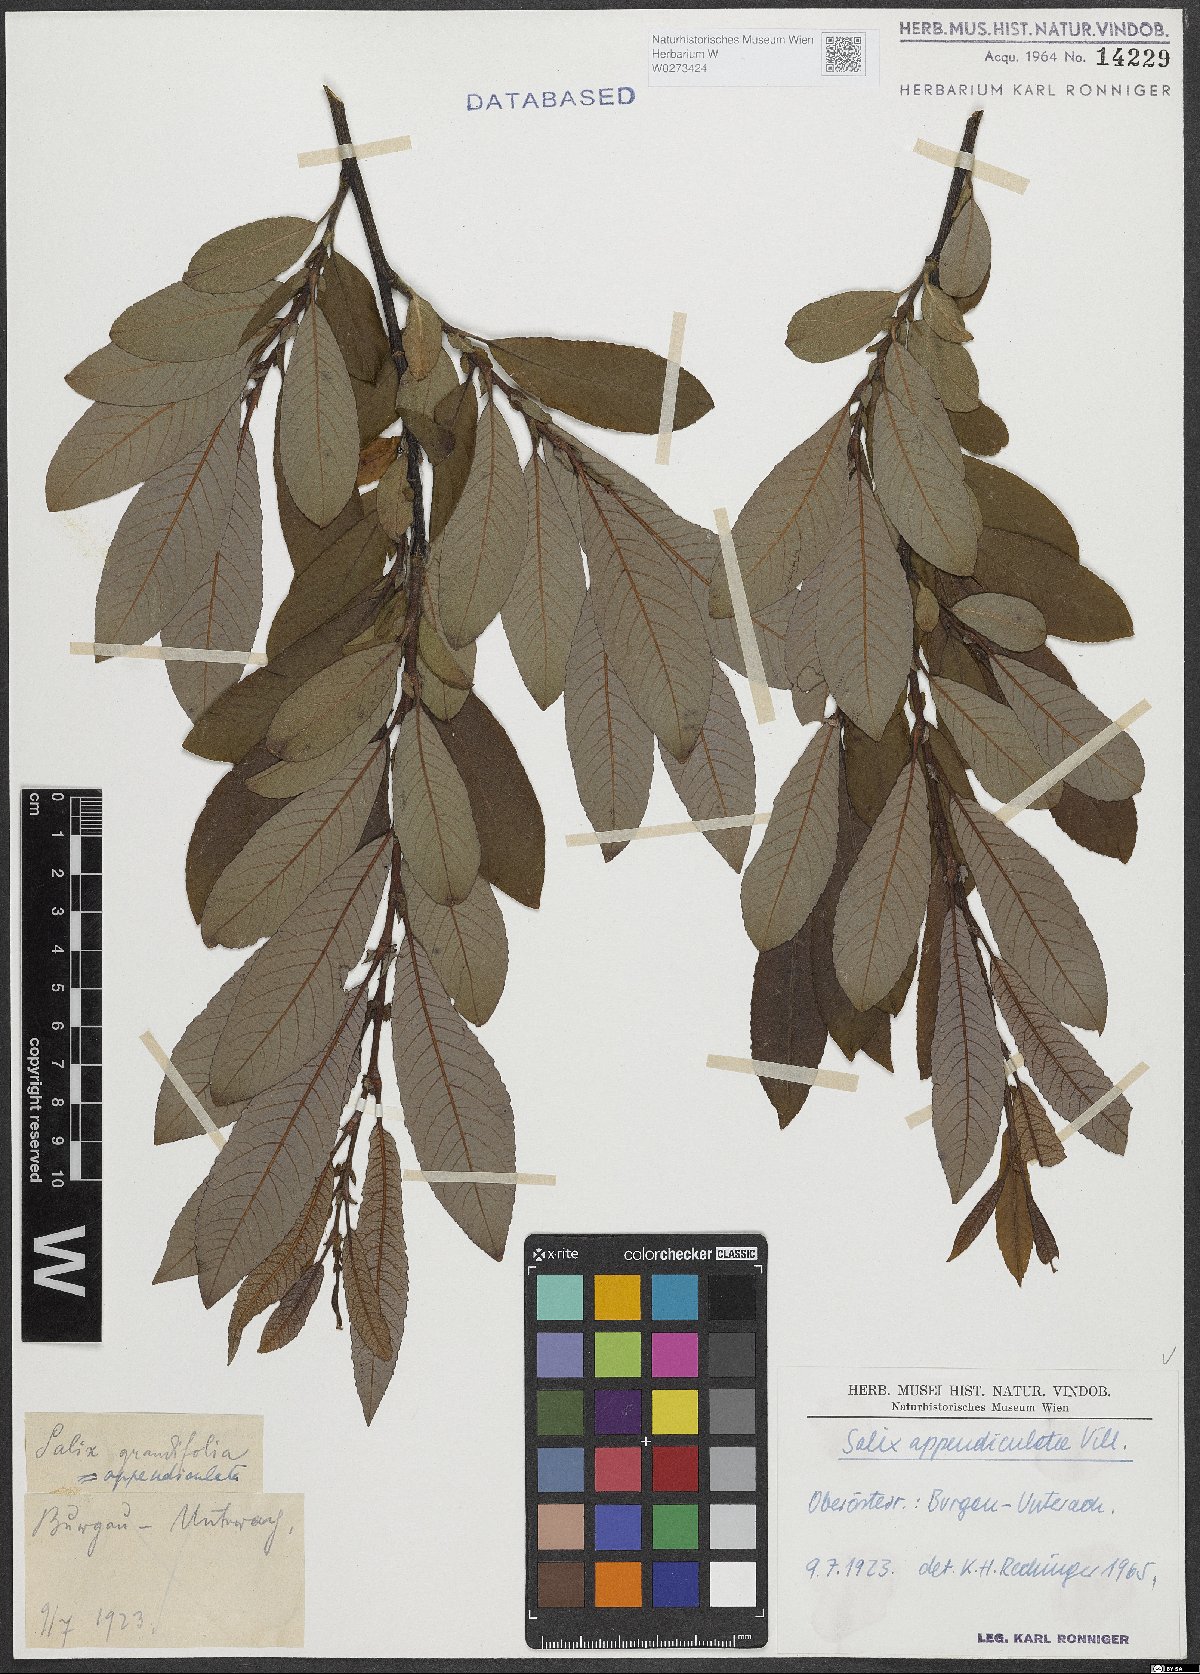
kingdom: Plantae
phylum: Tracheophyta
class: Magnoliopsida
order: Malpighiales
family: Salicaceae
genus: Salix
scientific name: Salix appendiculata
